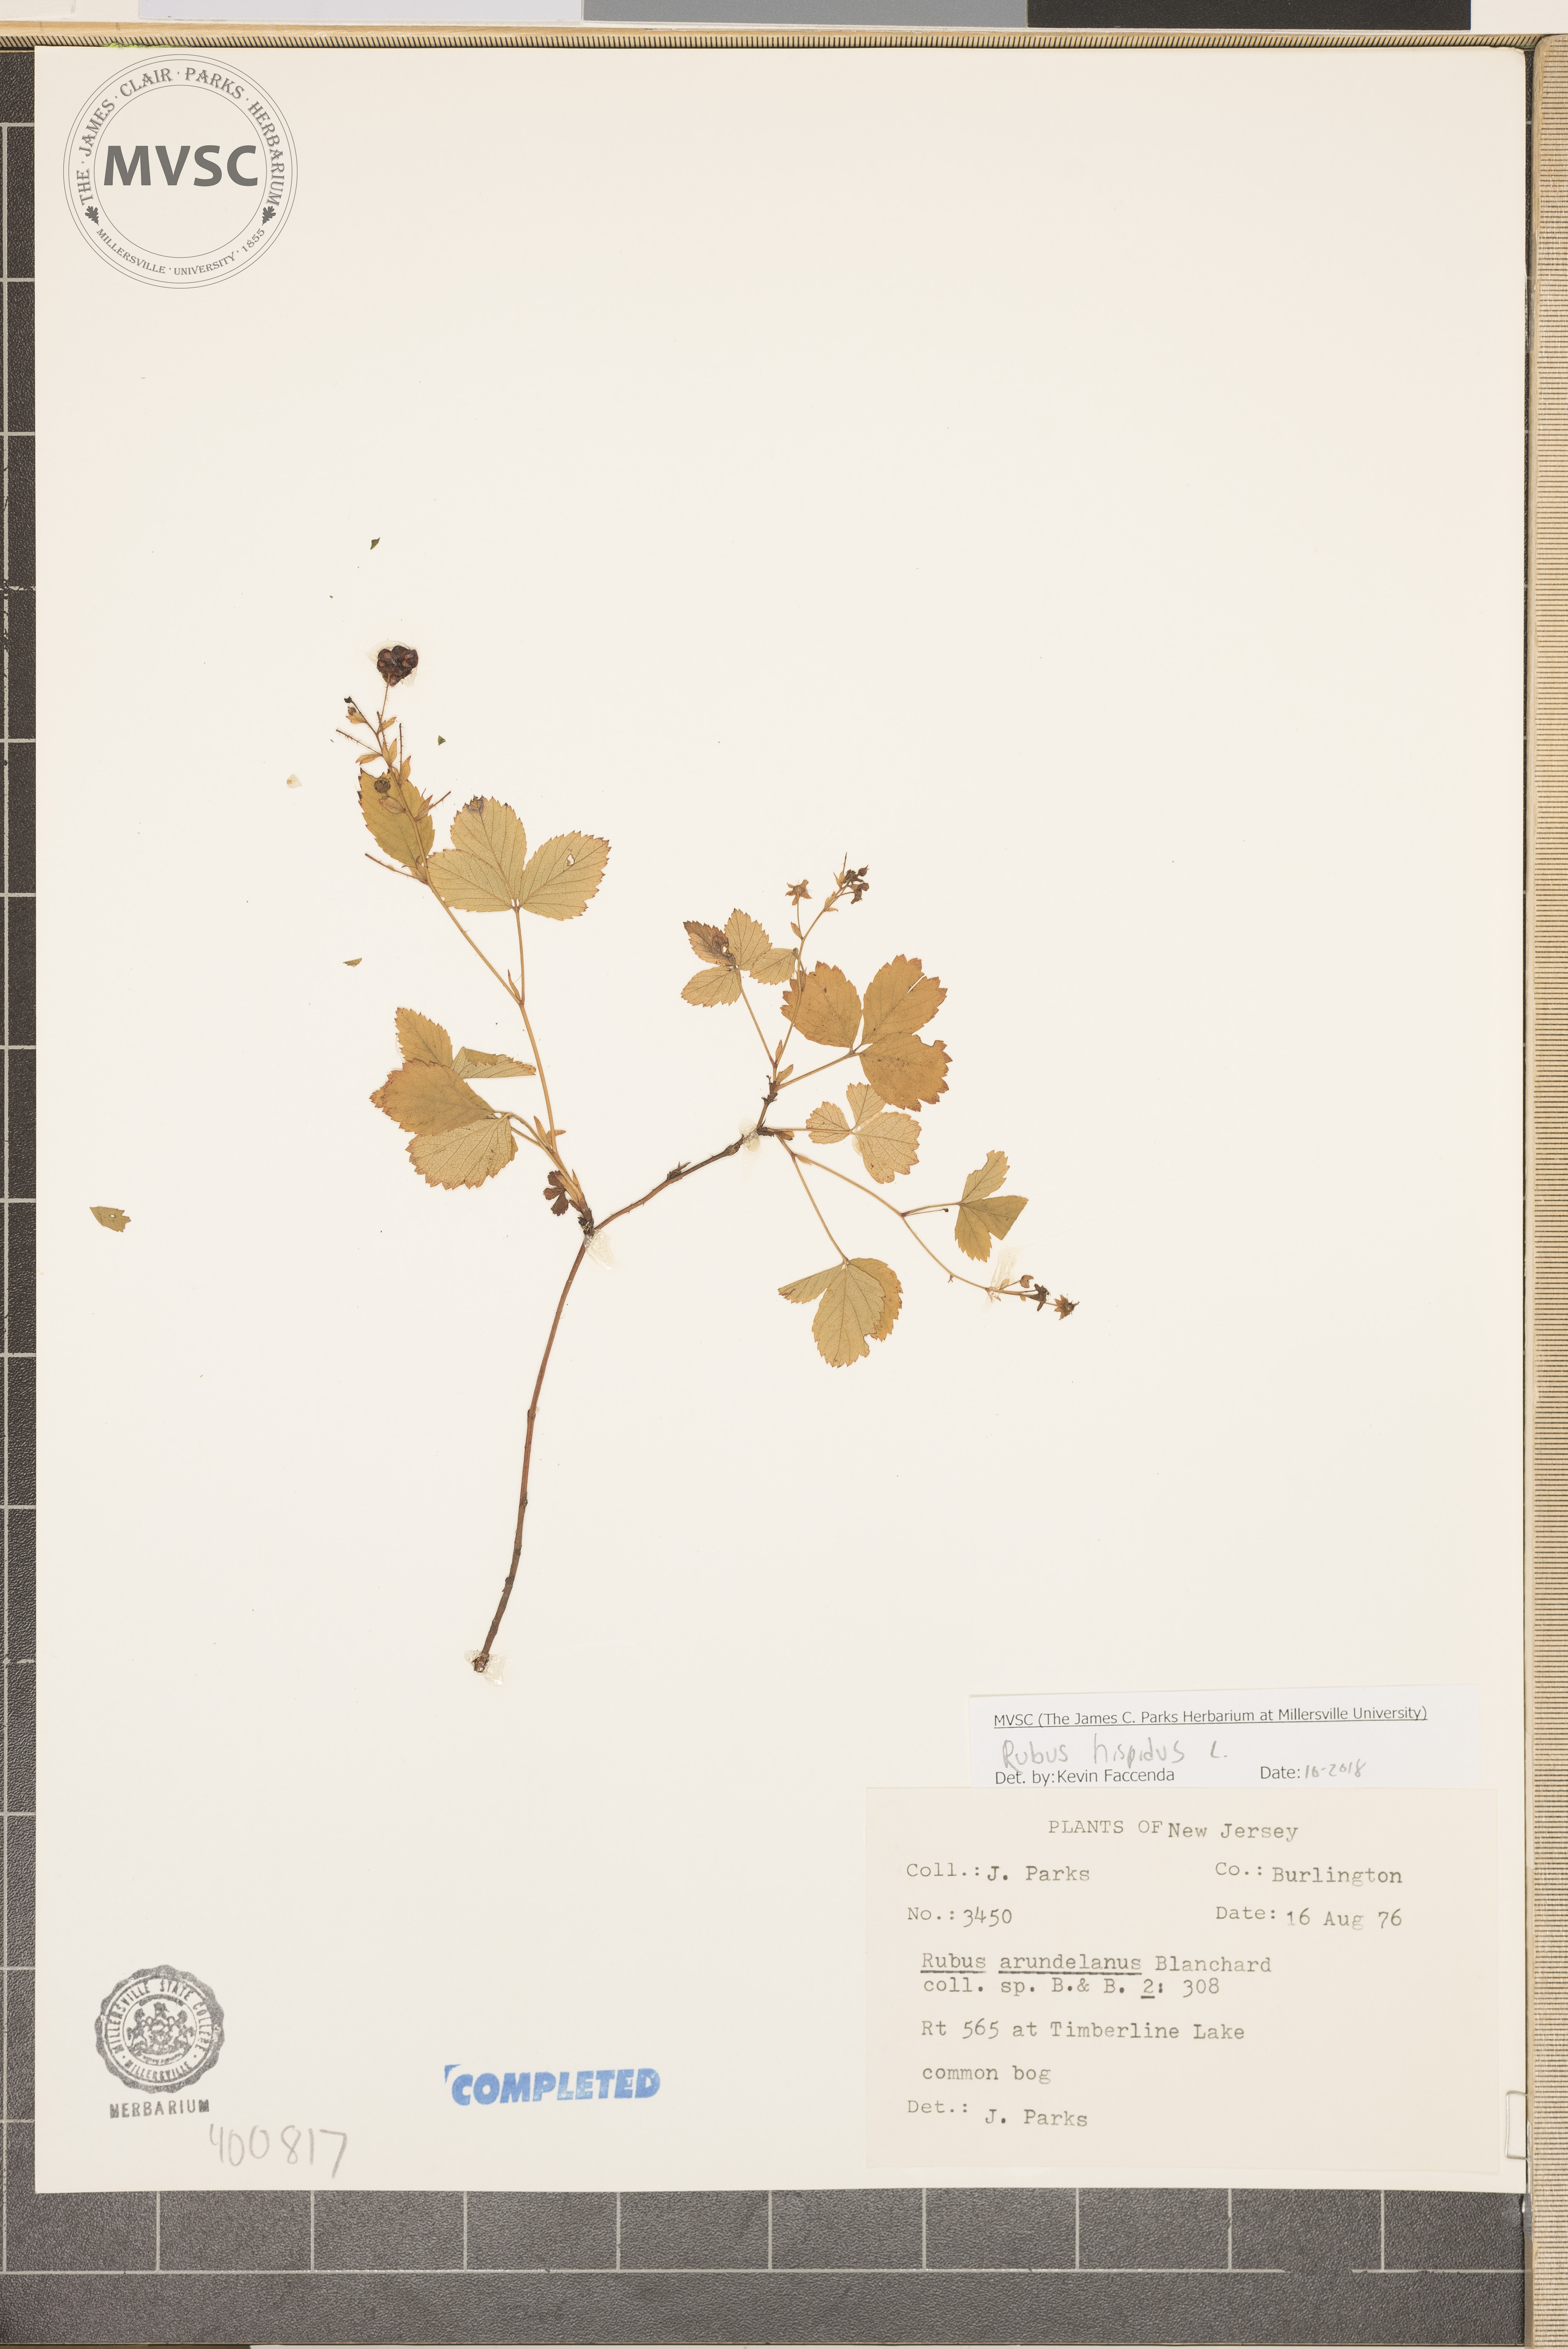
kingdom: Plantae
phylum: Tracheophyta
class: Magnoliopsida
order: Rosales
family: Rosaceae
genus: Rubus
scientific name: Rubus hispidus
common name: Running blackberry
